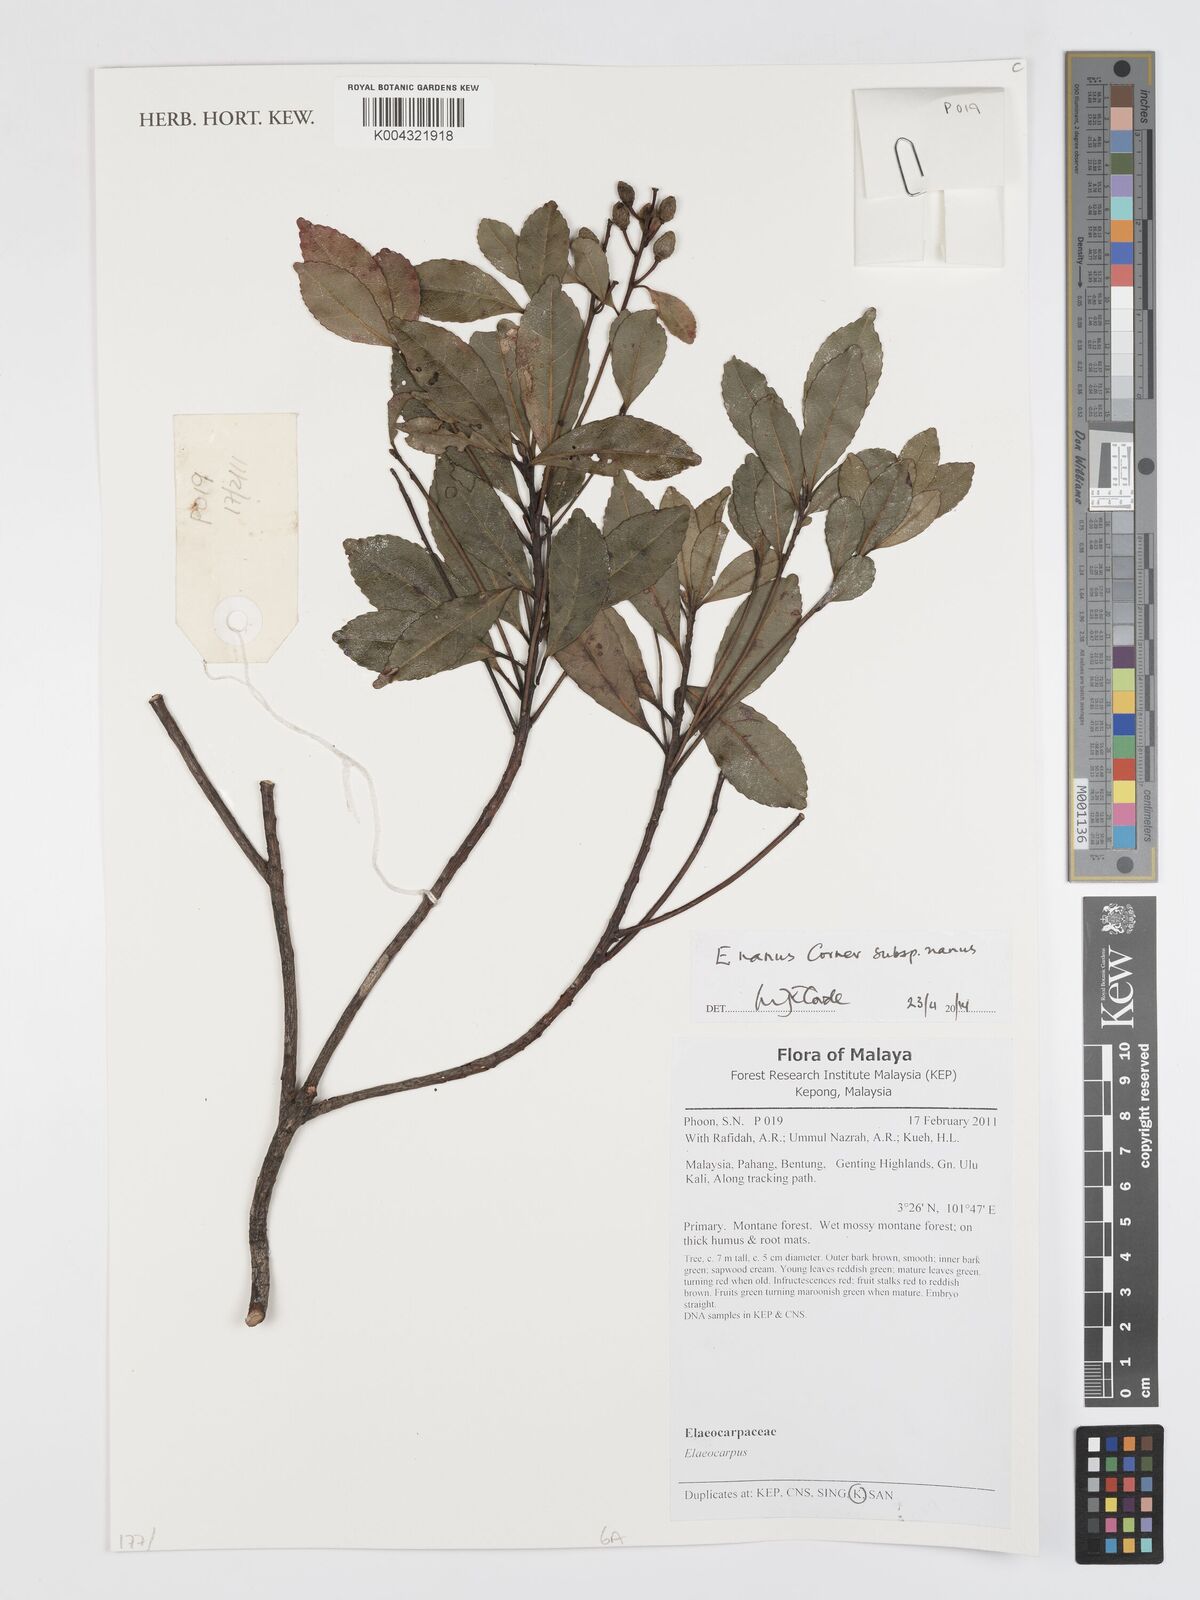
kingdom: Plantae
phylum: Tracheophyta
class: Magnoliopsida
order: Oxalidales
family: Elaeocarpaceae
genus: Elaeocarpus
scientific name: Elaeocarpus nanus
